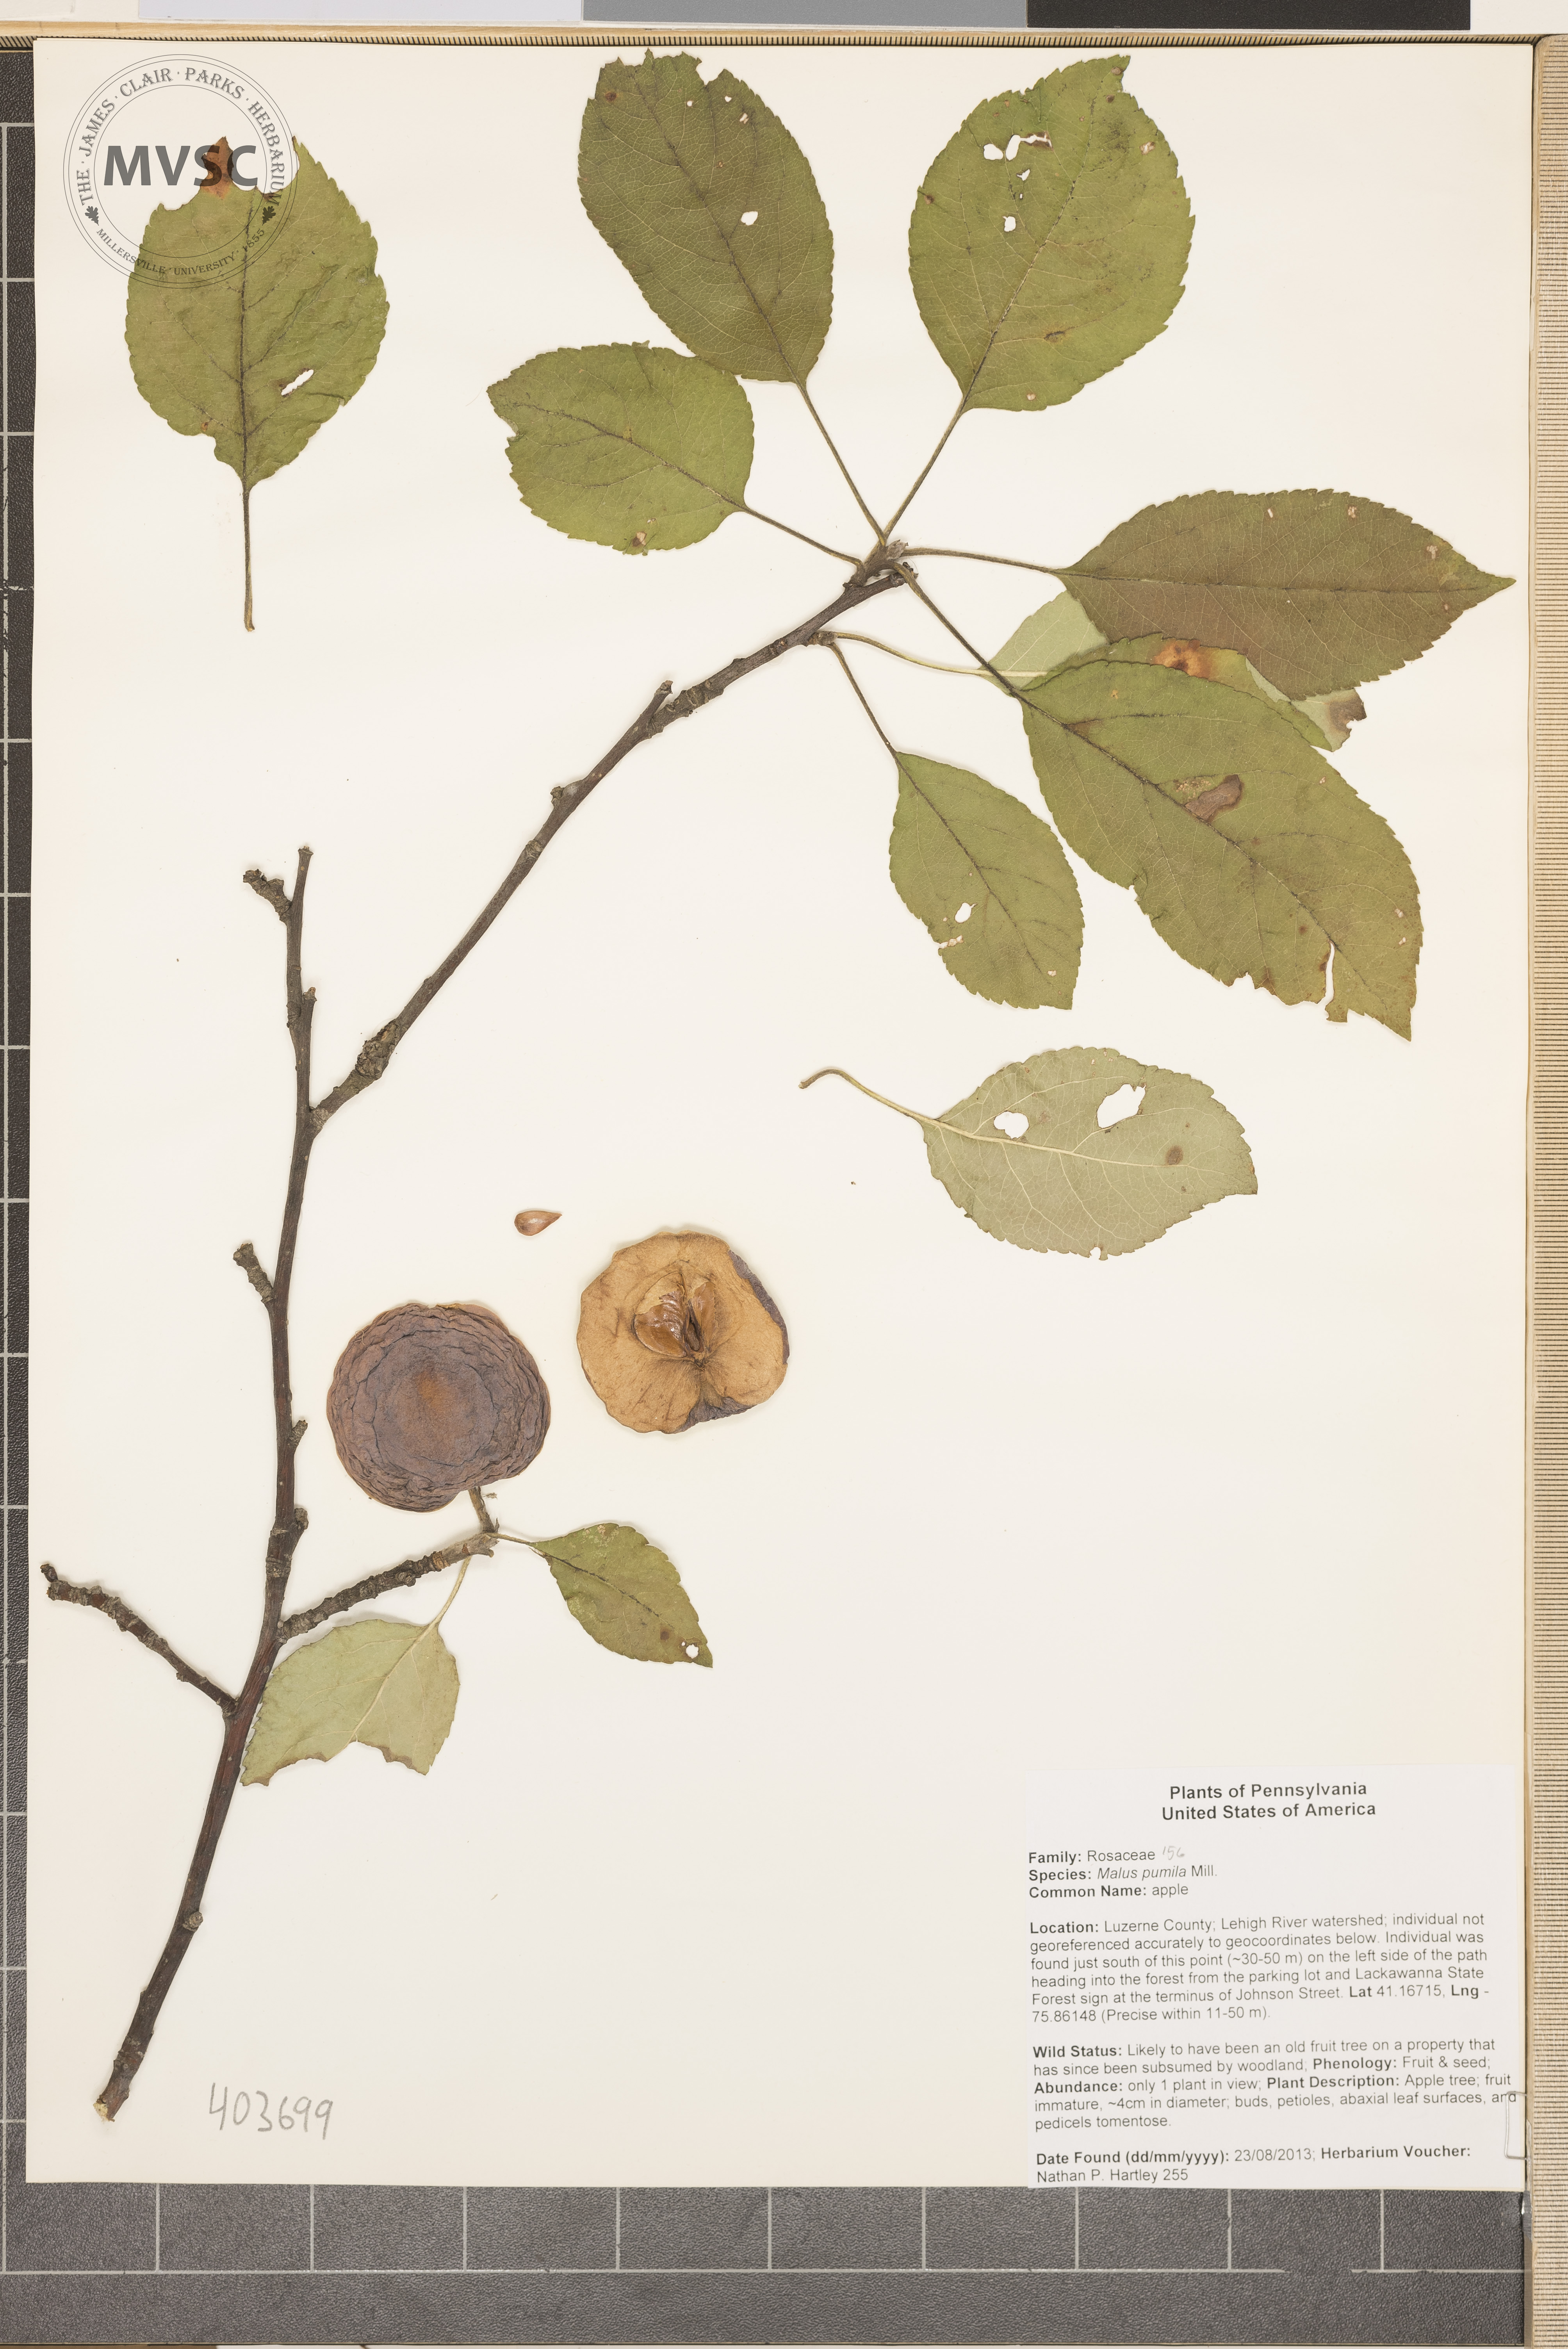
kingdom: Plantae
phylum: Tracheophyta
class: Magnoliopsida
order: Rosales
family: Rosaceae
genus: Malus
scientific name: Malus domestica
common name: Apple
